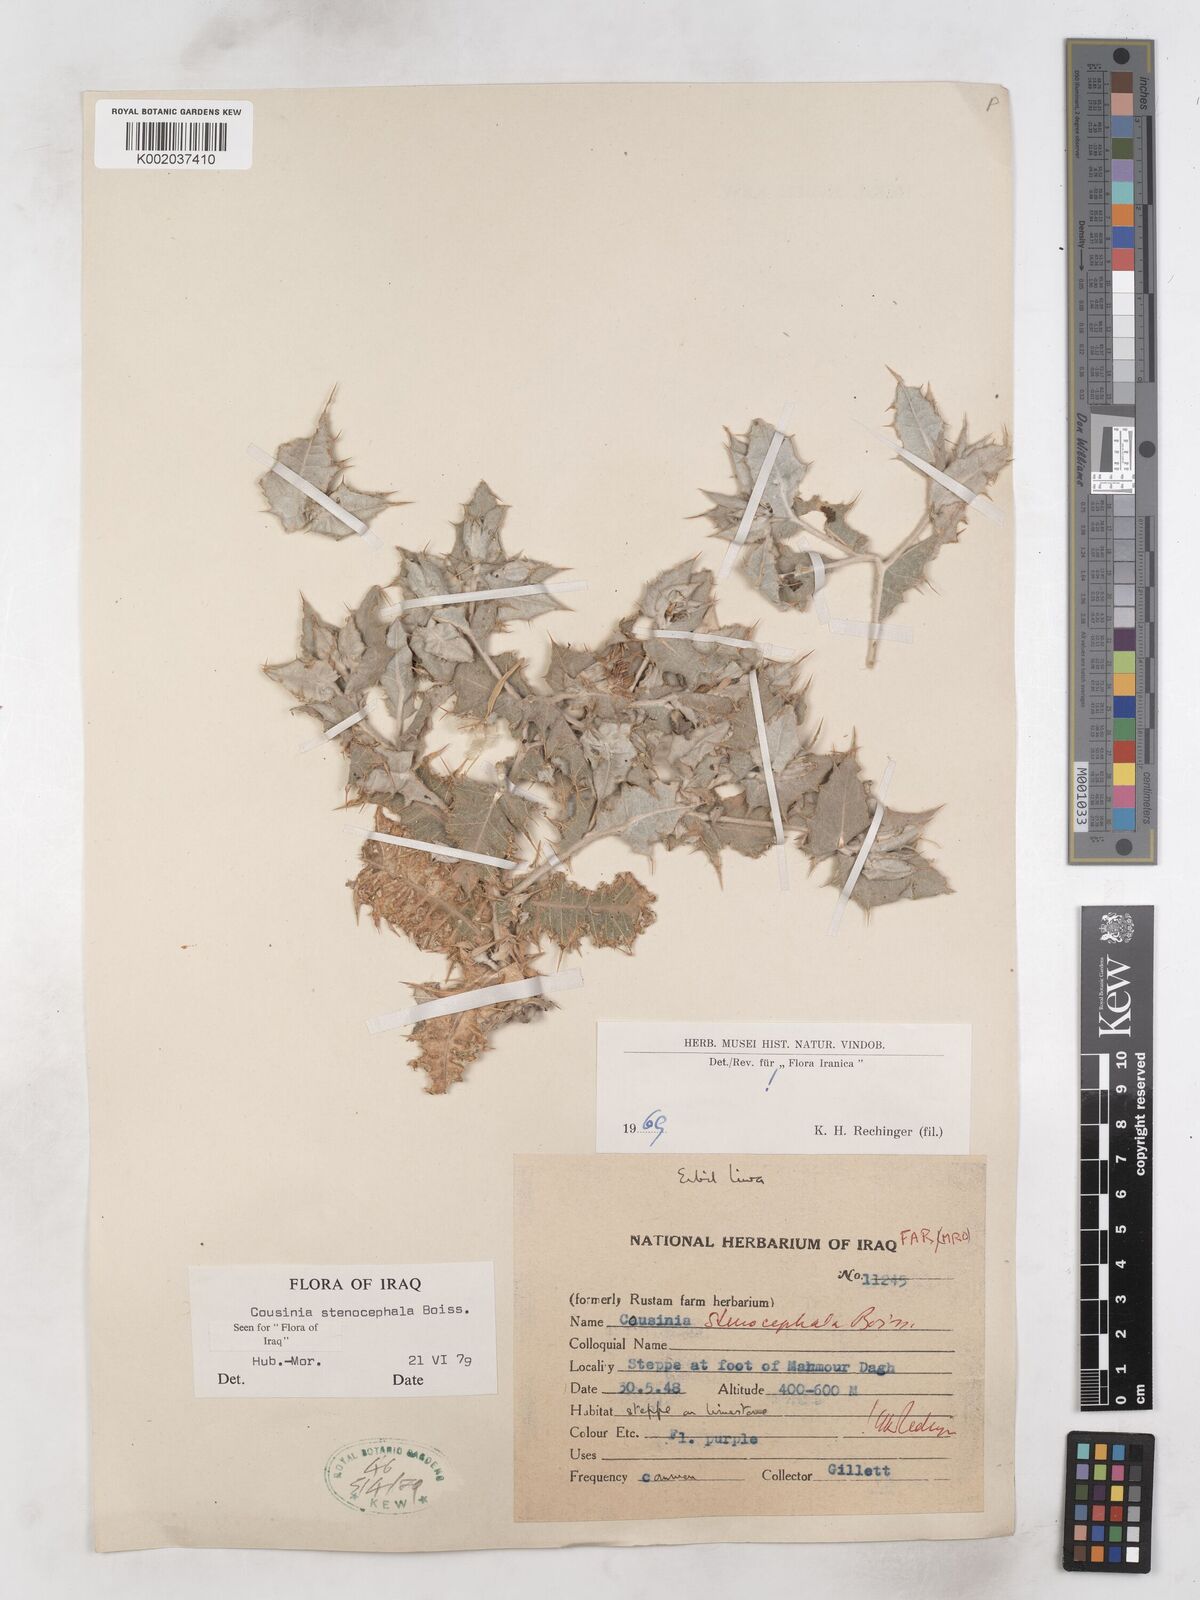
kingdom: Plantae
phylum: Tracheophyta
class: Magnoliopsida
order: Asterales
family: Asteraceae
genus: Cousinia
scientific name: Cousinia stenocephala
